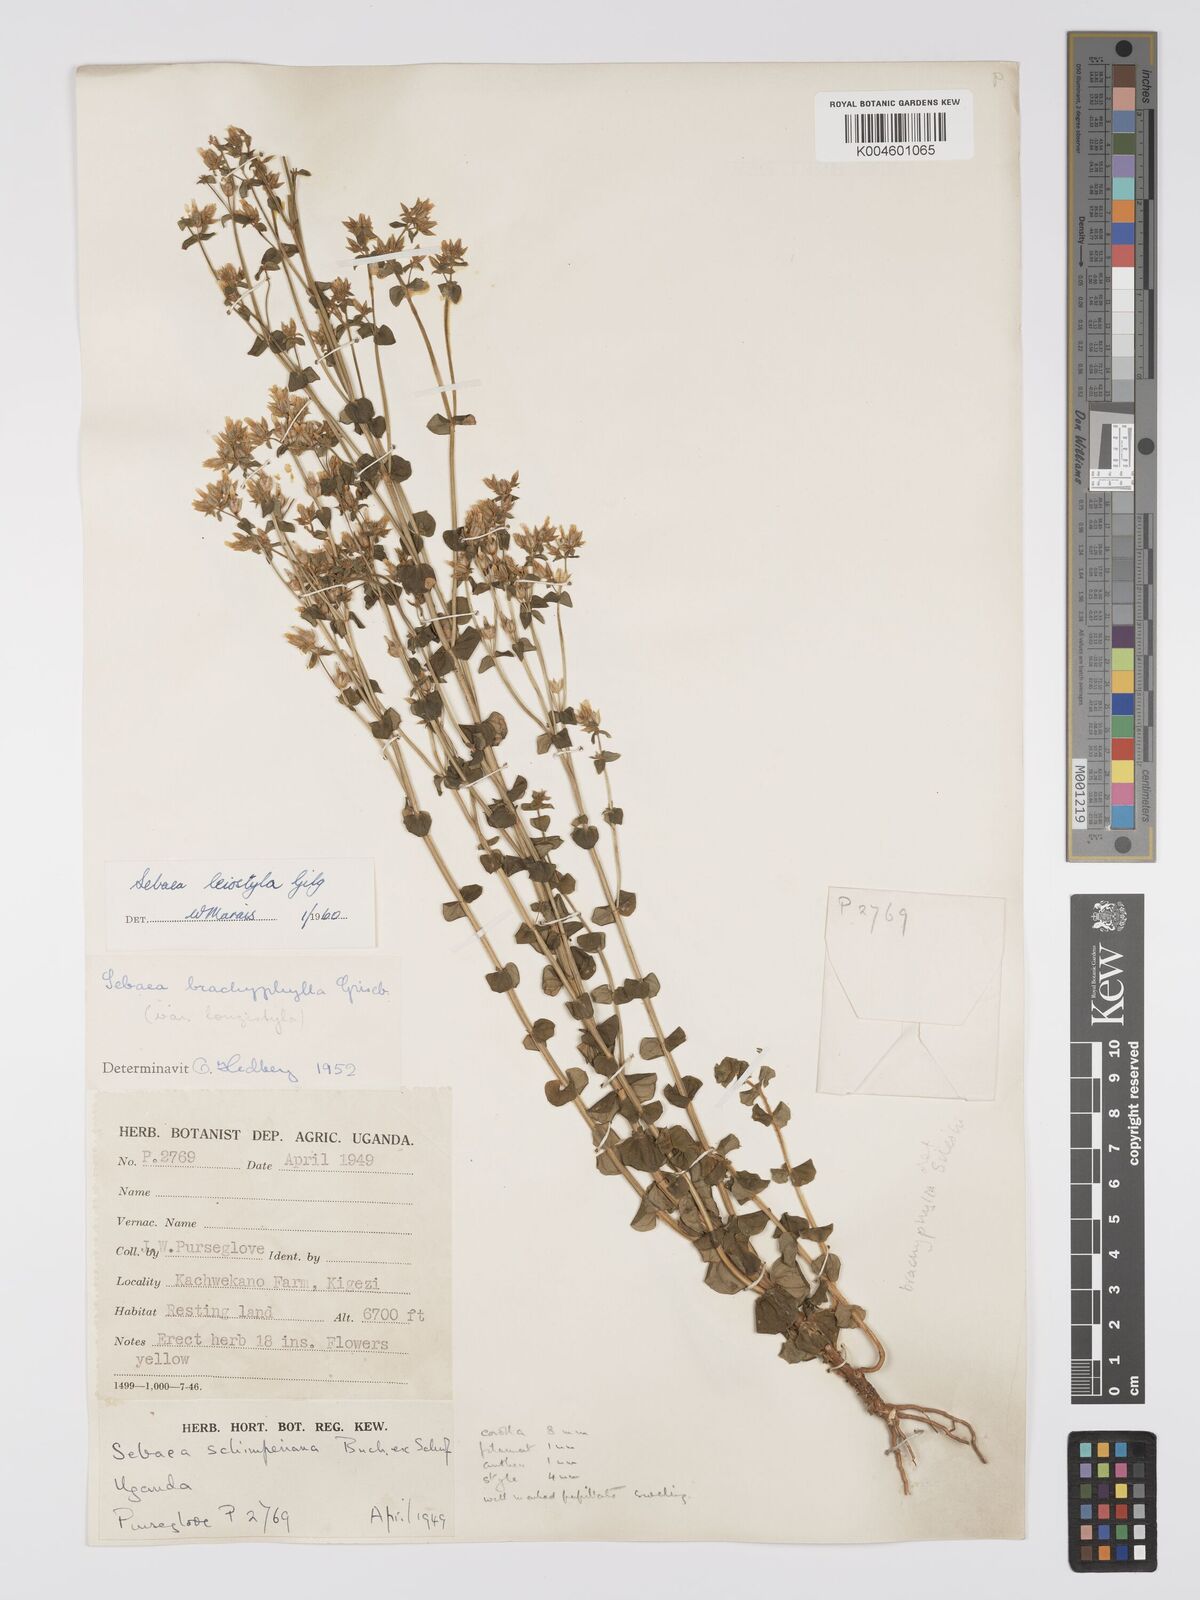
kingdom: Plantae
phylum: Tracheophyta
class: Magnoliopsida
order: Gentianales
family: Gentianaceae
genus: Sebaea
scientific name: Sebaea brachyphylla
